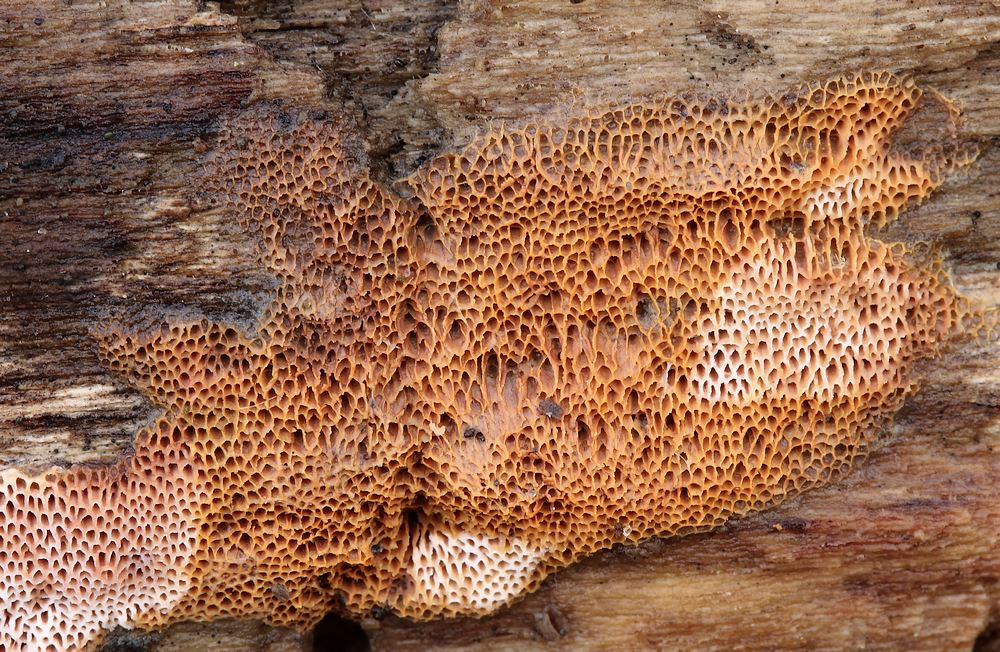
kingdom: Fungi
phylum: Basidiomycota
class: Agaricomycetes
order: Polyporales
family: Irpicaceae
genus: Ceriporia
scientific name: Ceriporia
